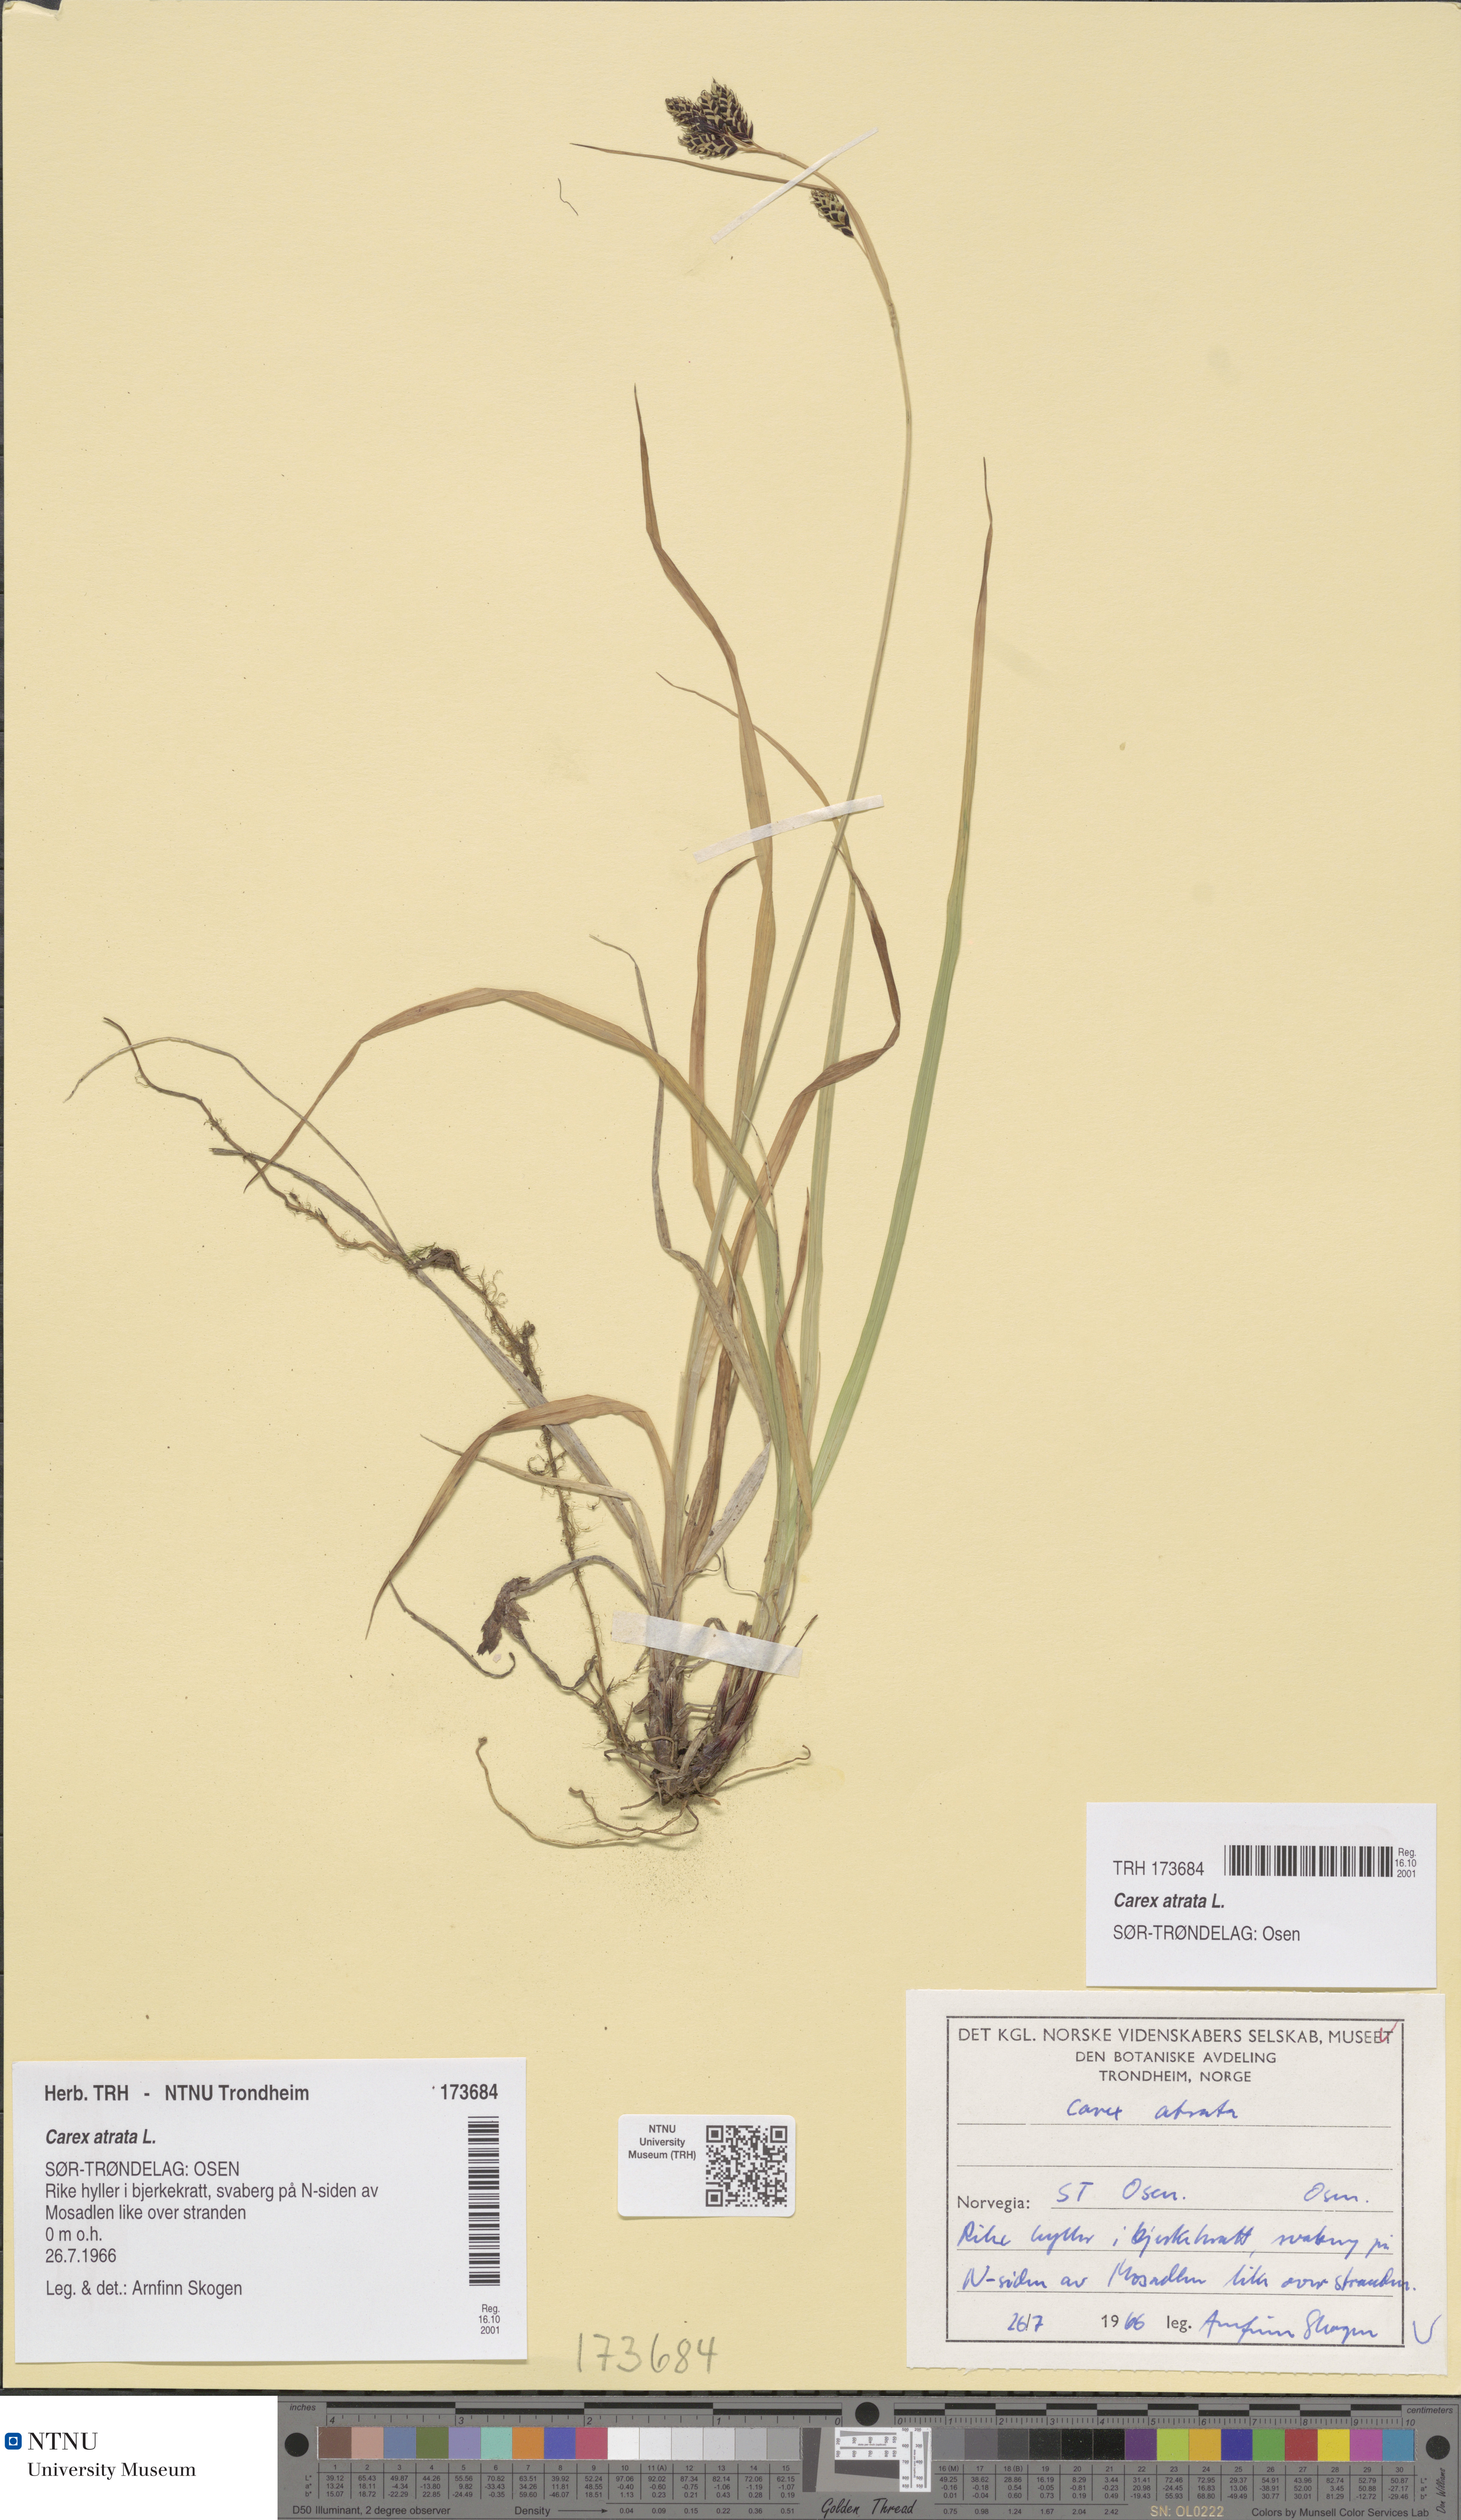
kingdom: Plantae
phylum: Tracheophyta
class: Liliopsida
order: Poales
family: Cyperaceae
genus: Carex
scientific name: Carex atrata
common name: Black alpine sedge
